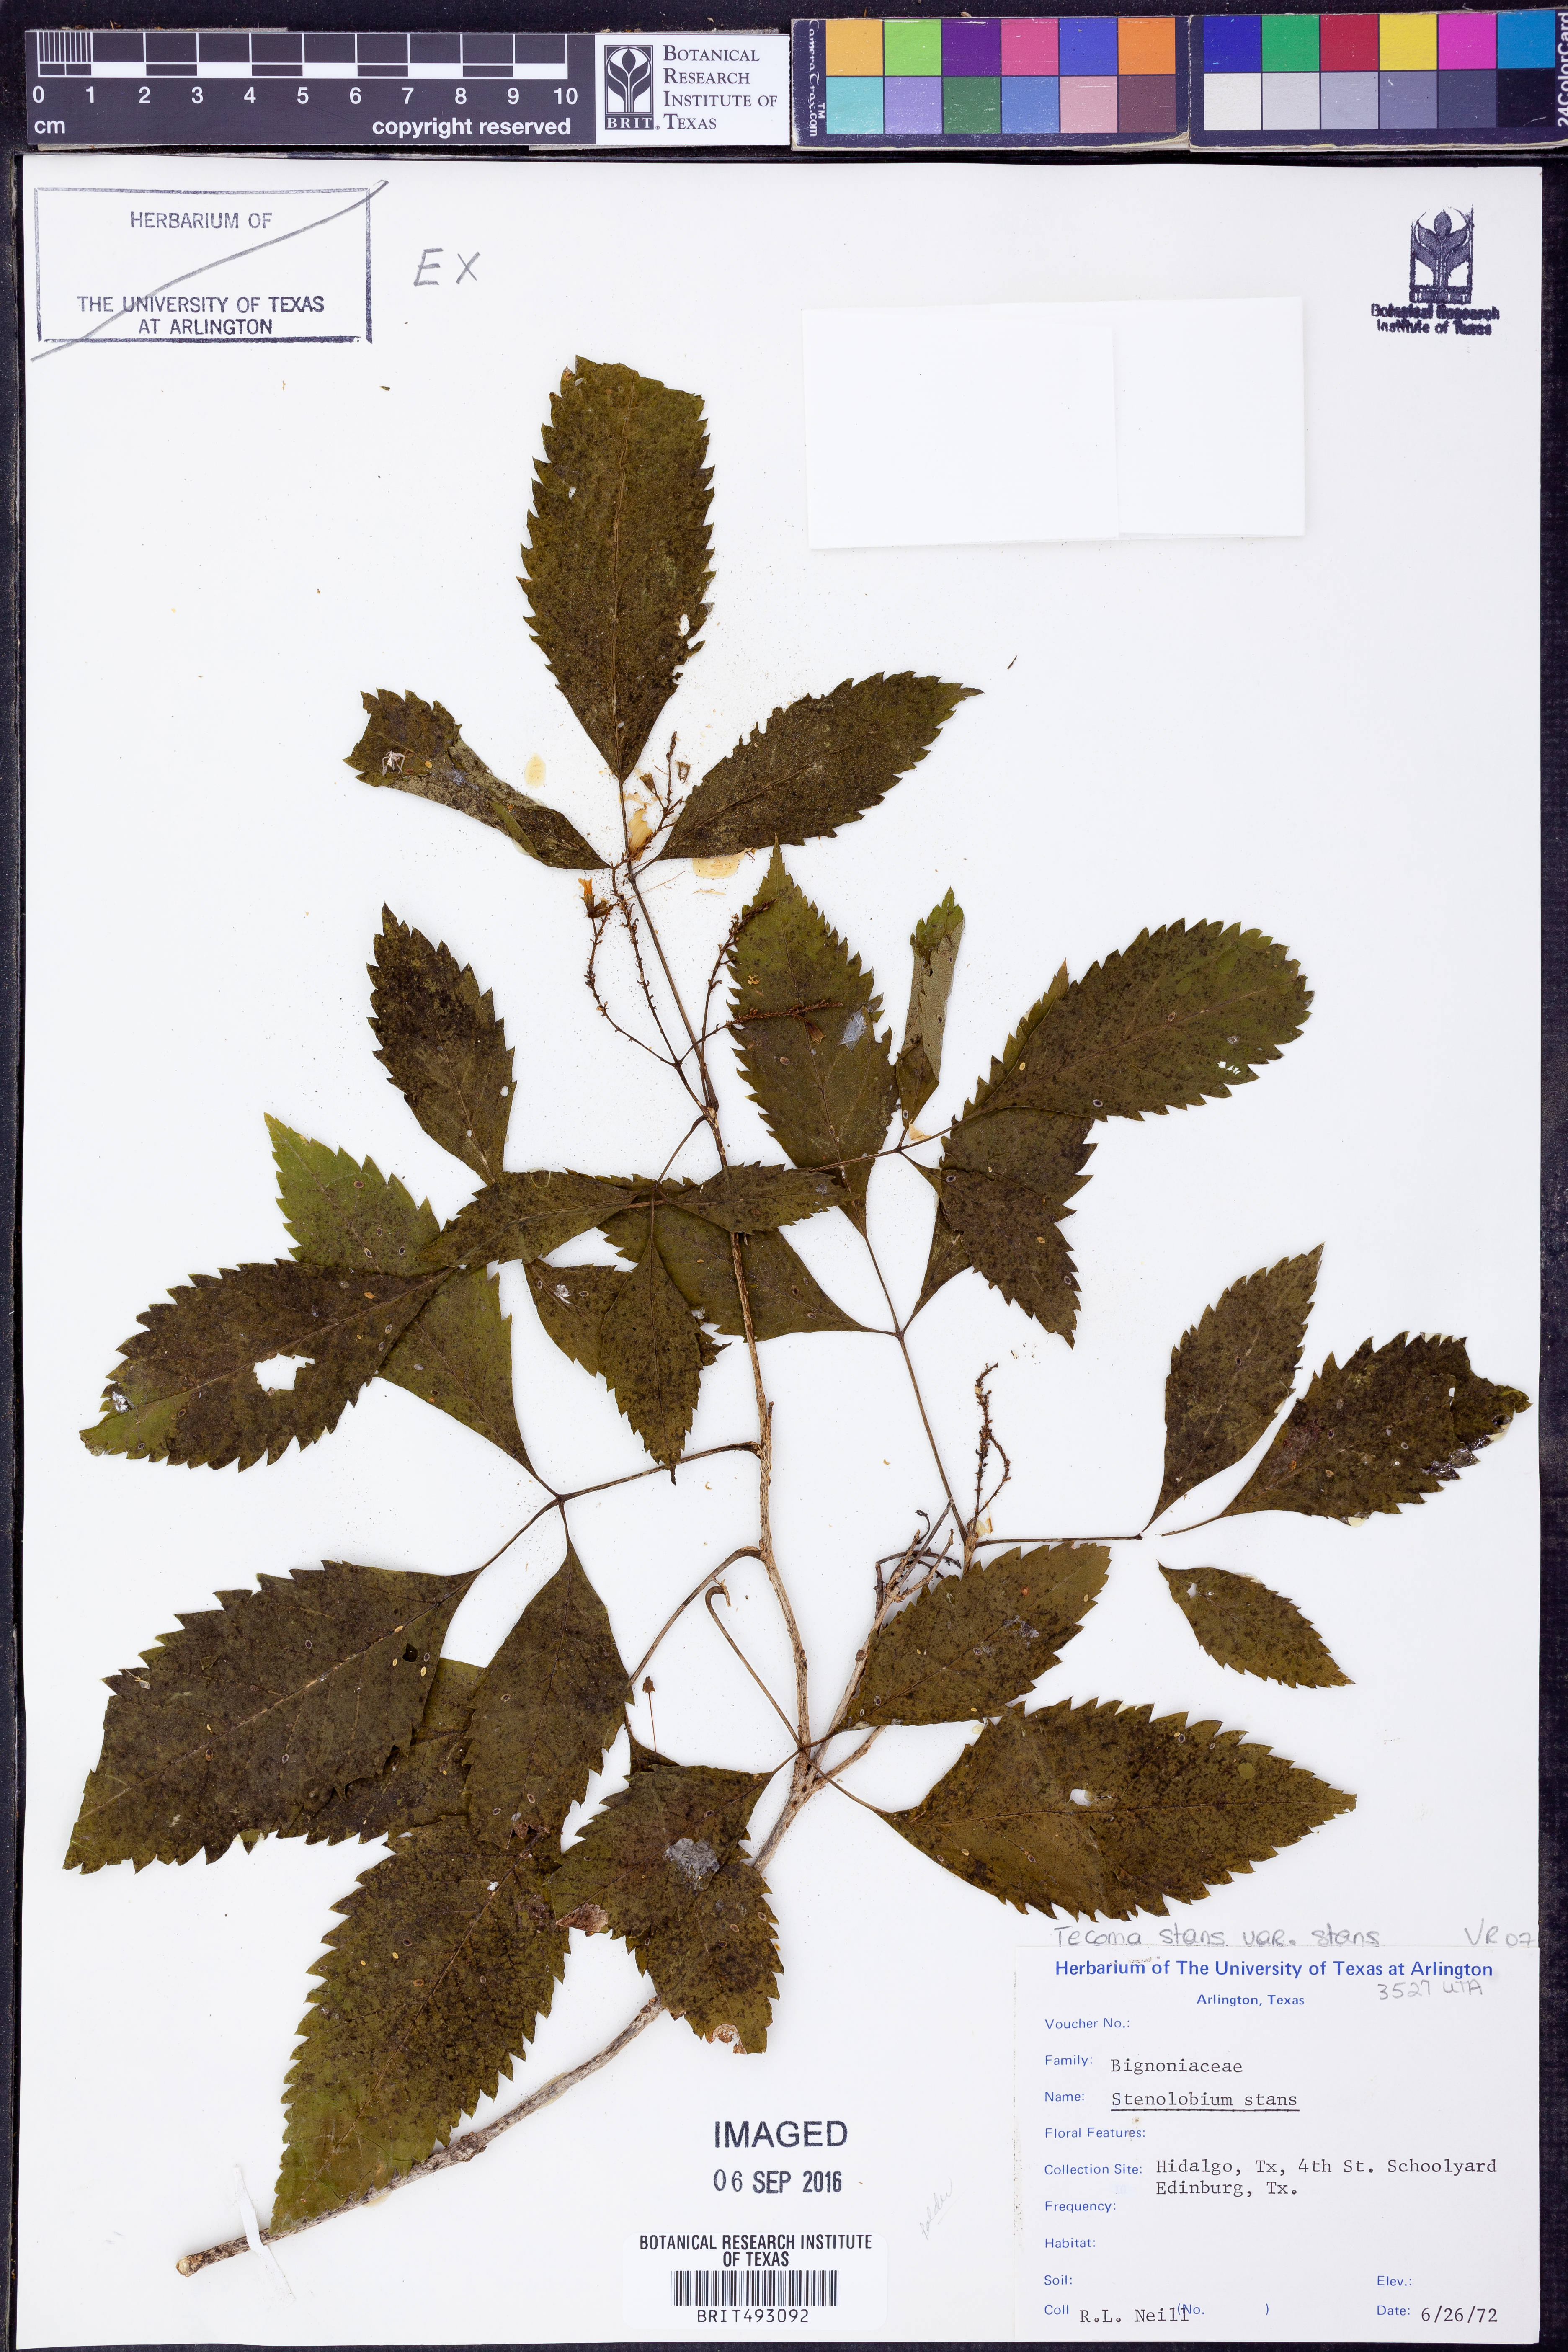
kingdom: Plantae
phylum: Tracheophyta
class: Magnoliopsida
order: Lamiales
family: Bignoniaceae
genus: Tecoma
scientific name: Tecoma stans
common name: Yellow trumpetbush
